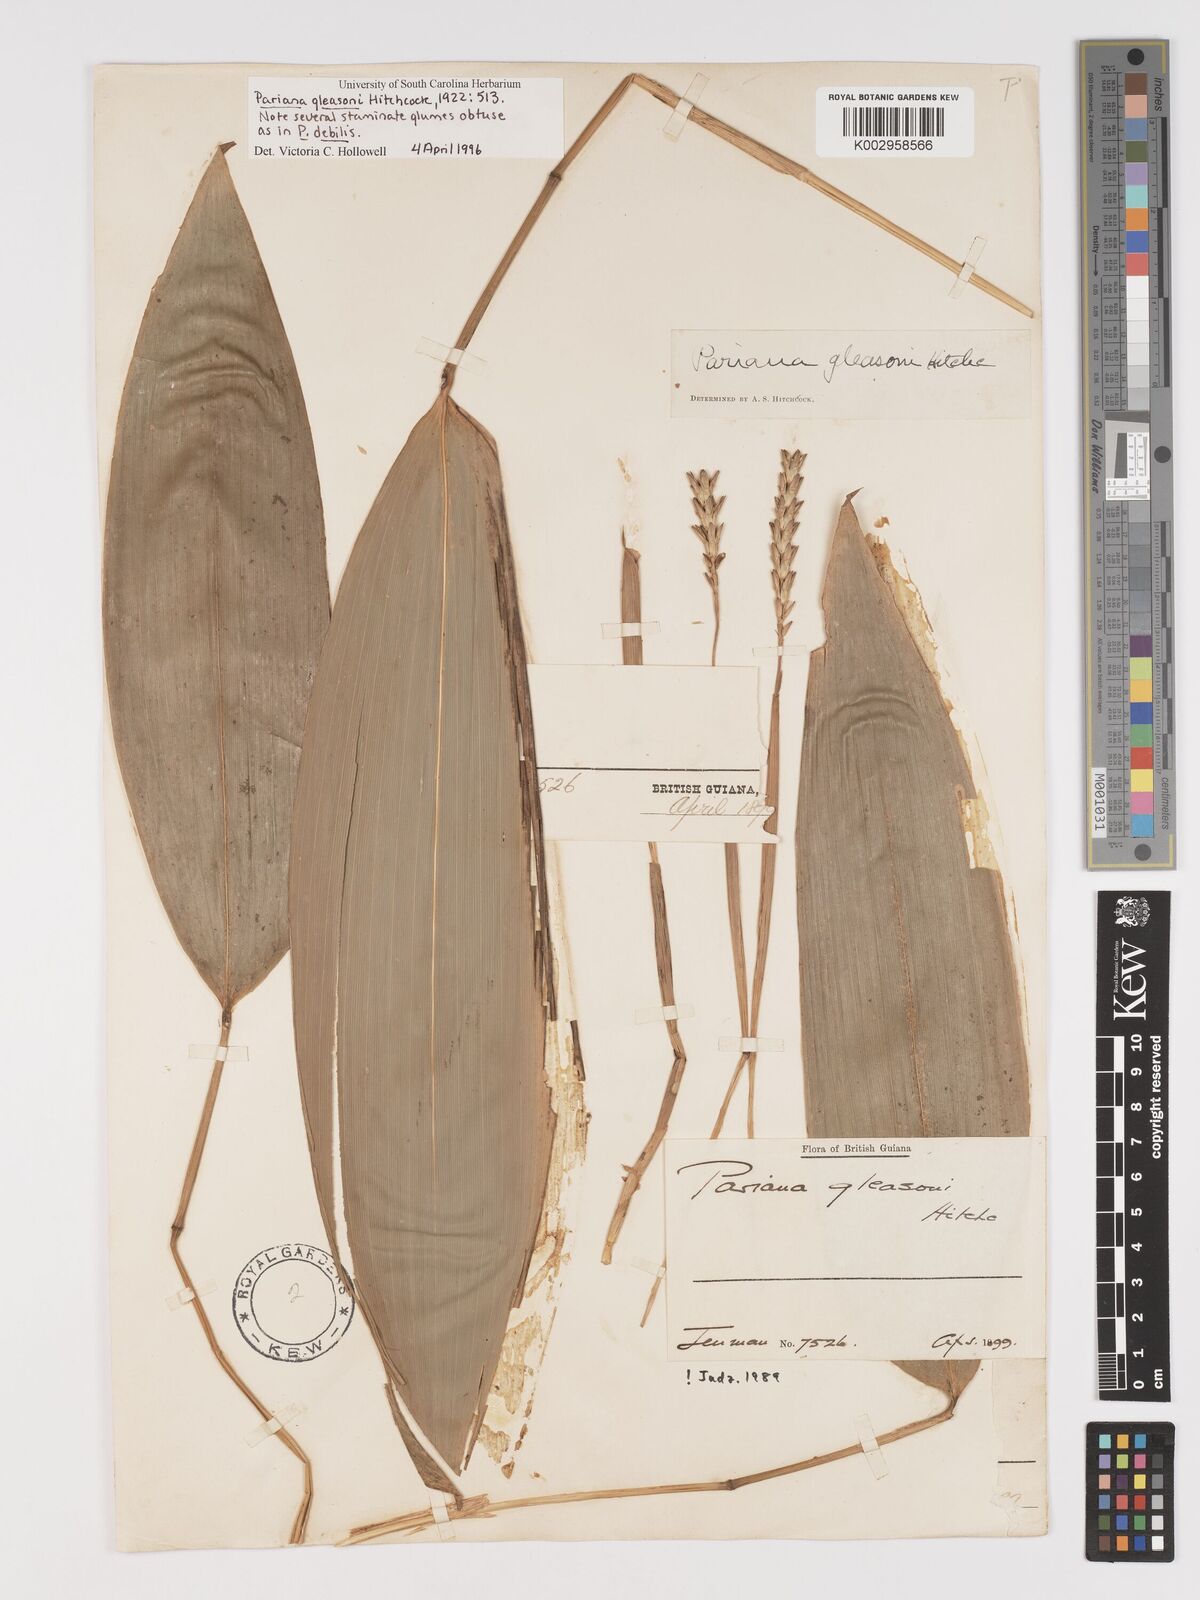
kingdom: Plantae
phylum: Tracheophyta
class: Liliopsida
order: Poales
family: Poaceae
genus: Pariana
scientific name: Pariana radiciflora
